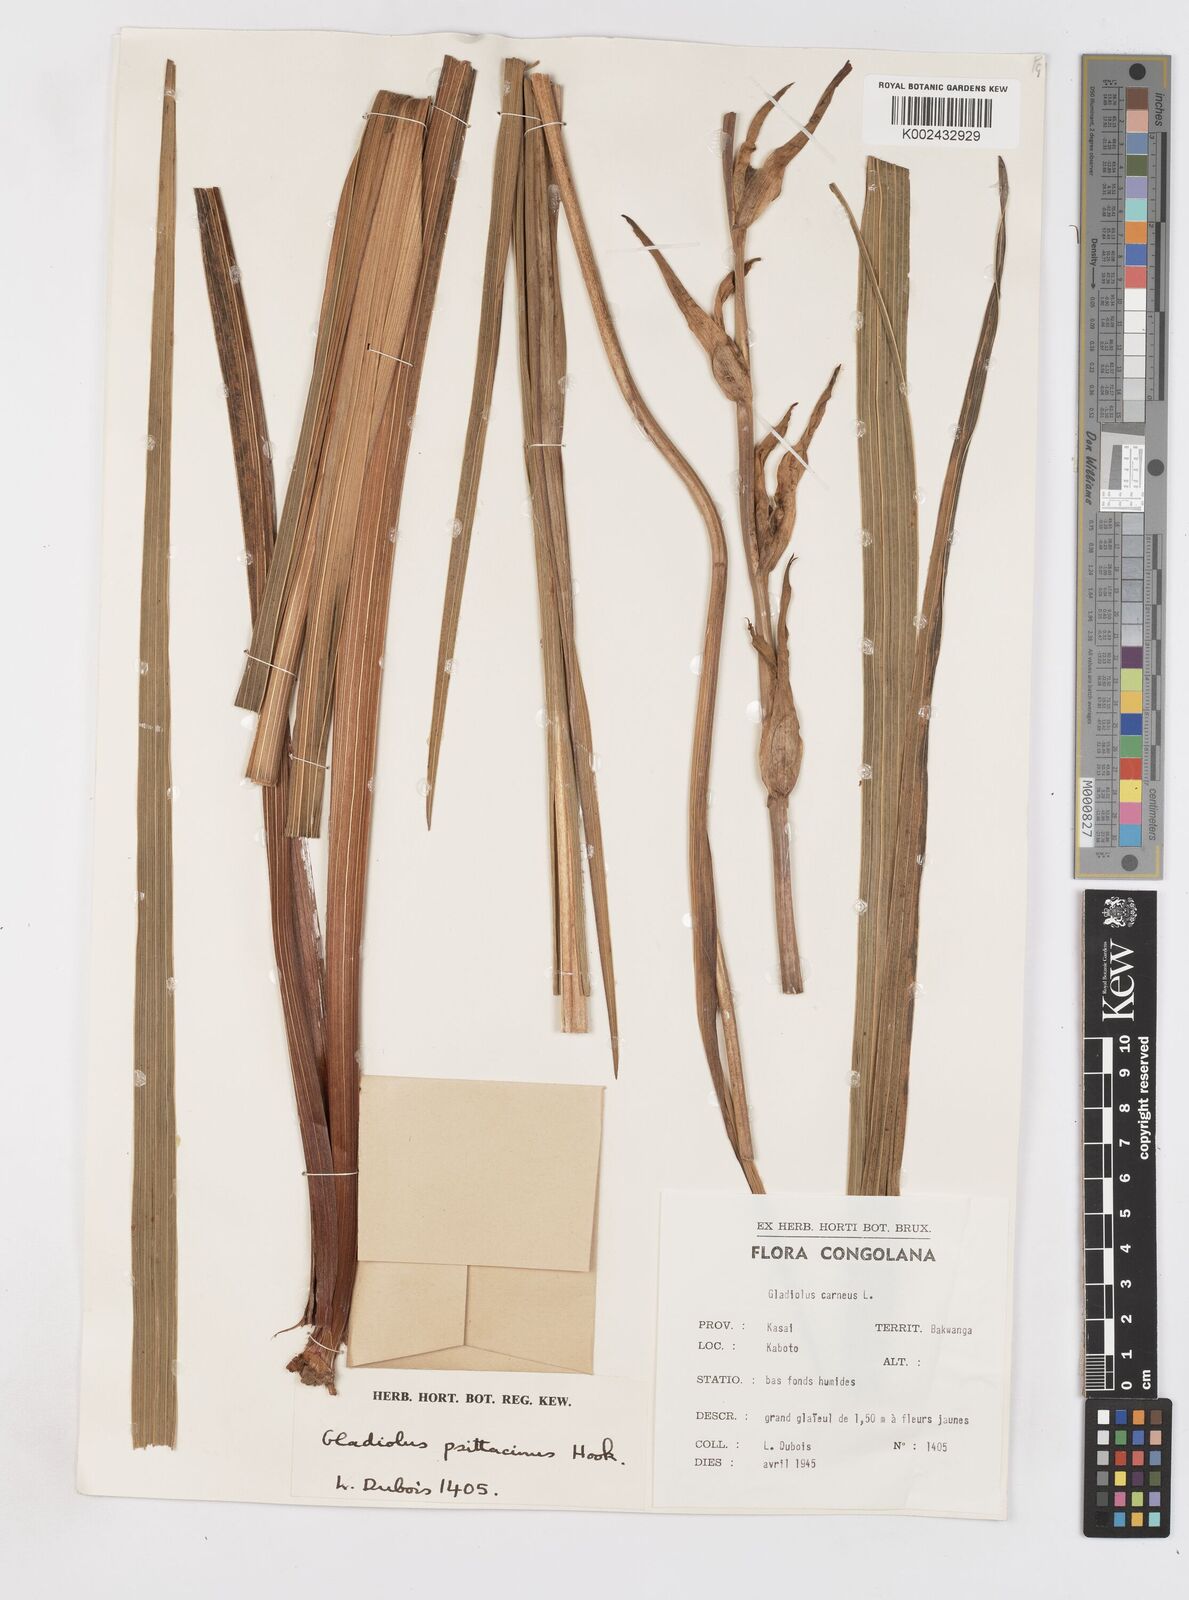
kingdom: Plantae
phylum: Tracheophyta
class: Liliopsida
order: Asparagales
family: Iridaceae
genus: Gladiolus
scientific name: Gladiolus dalenii
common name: Cornflag
